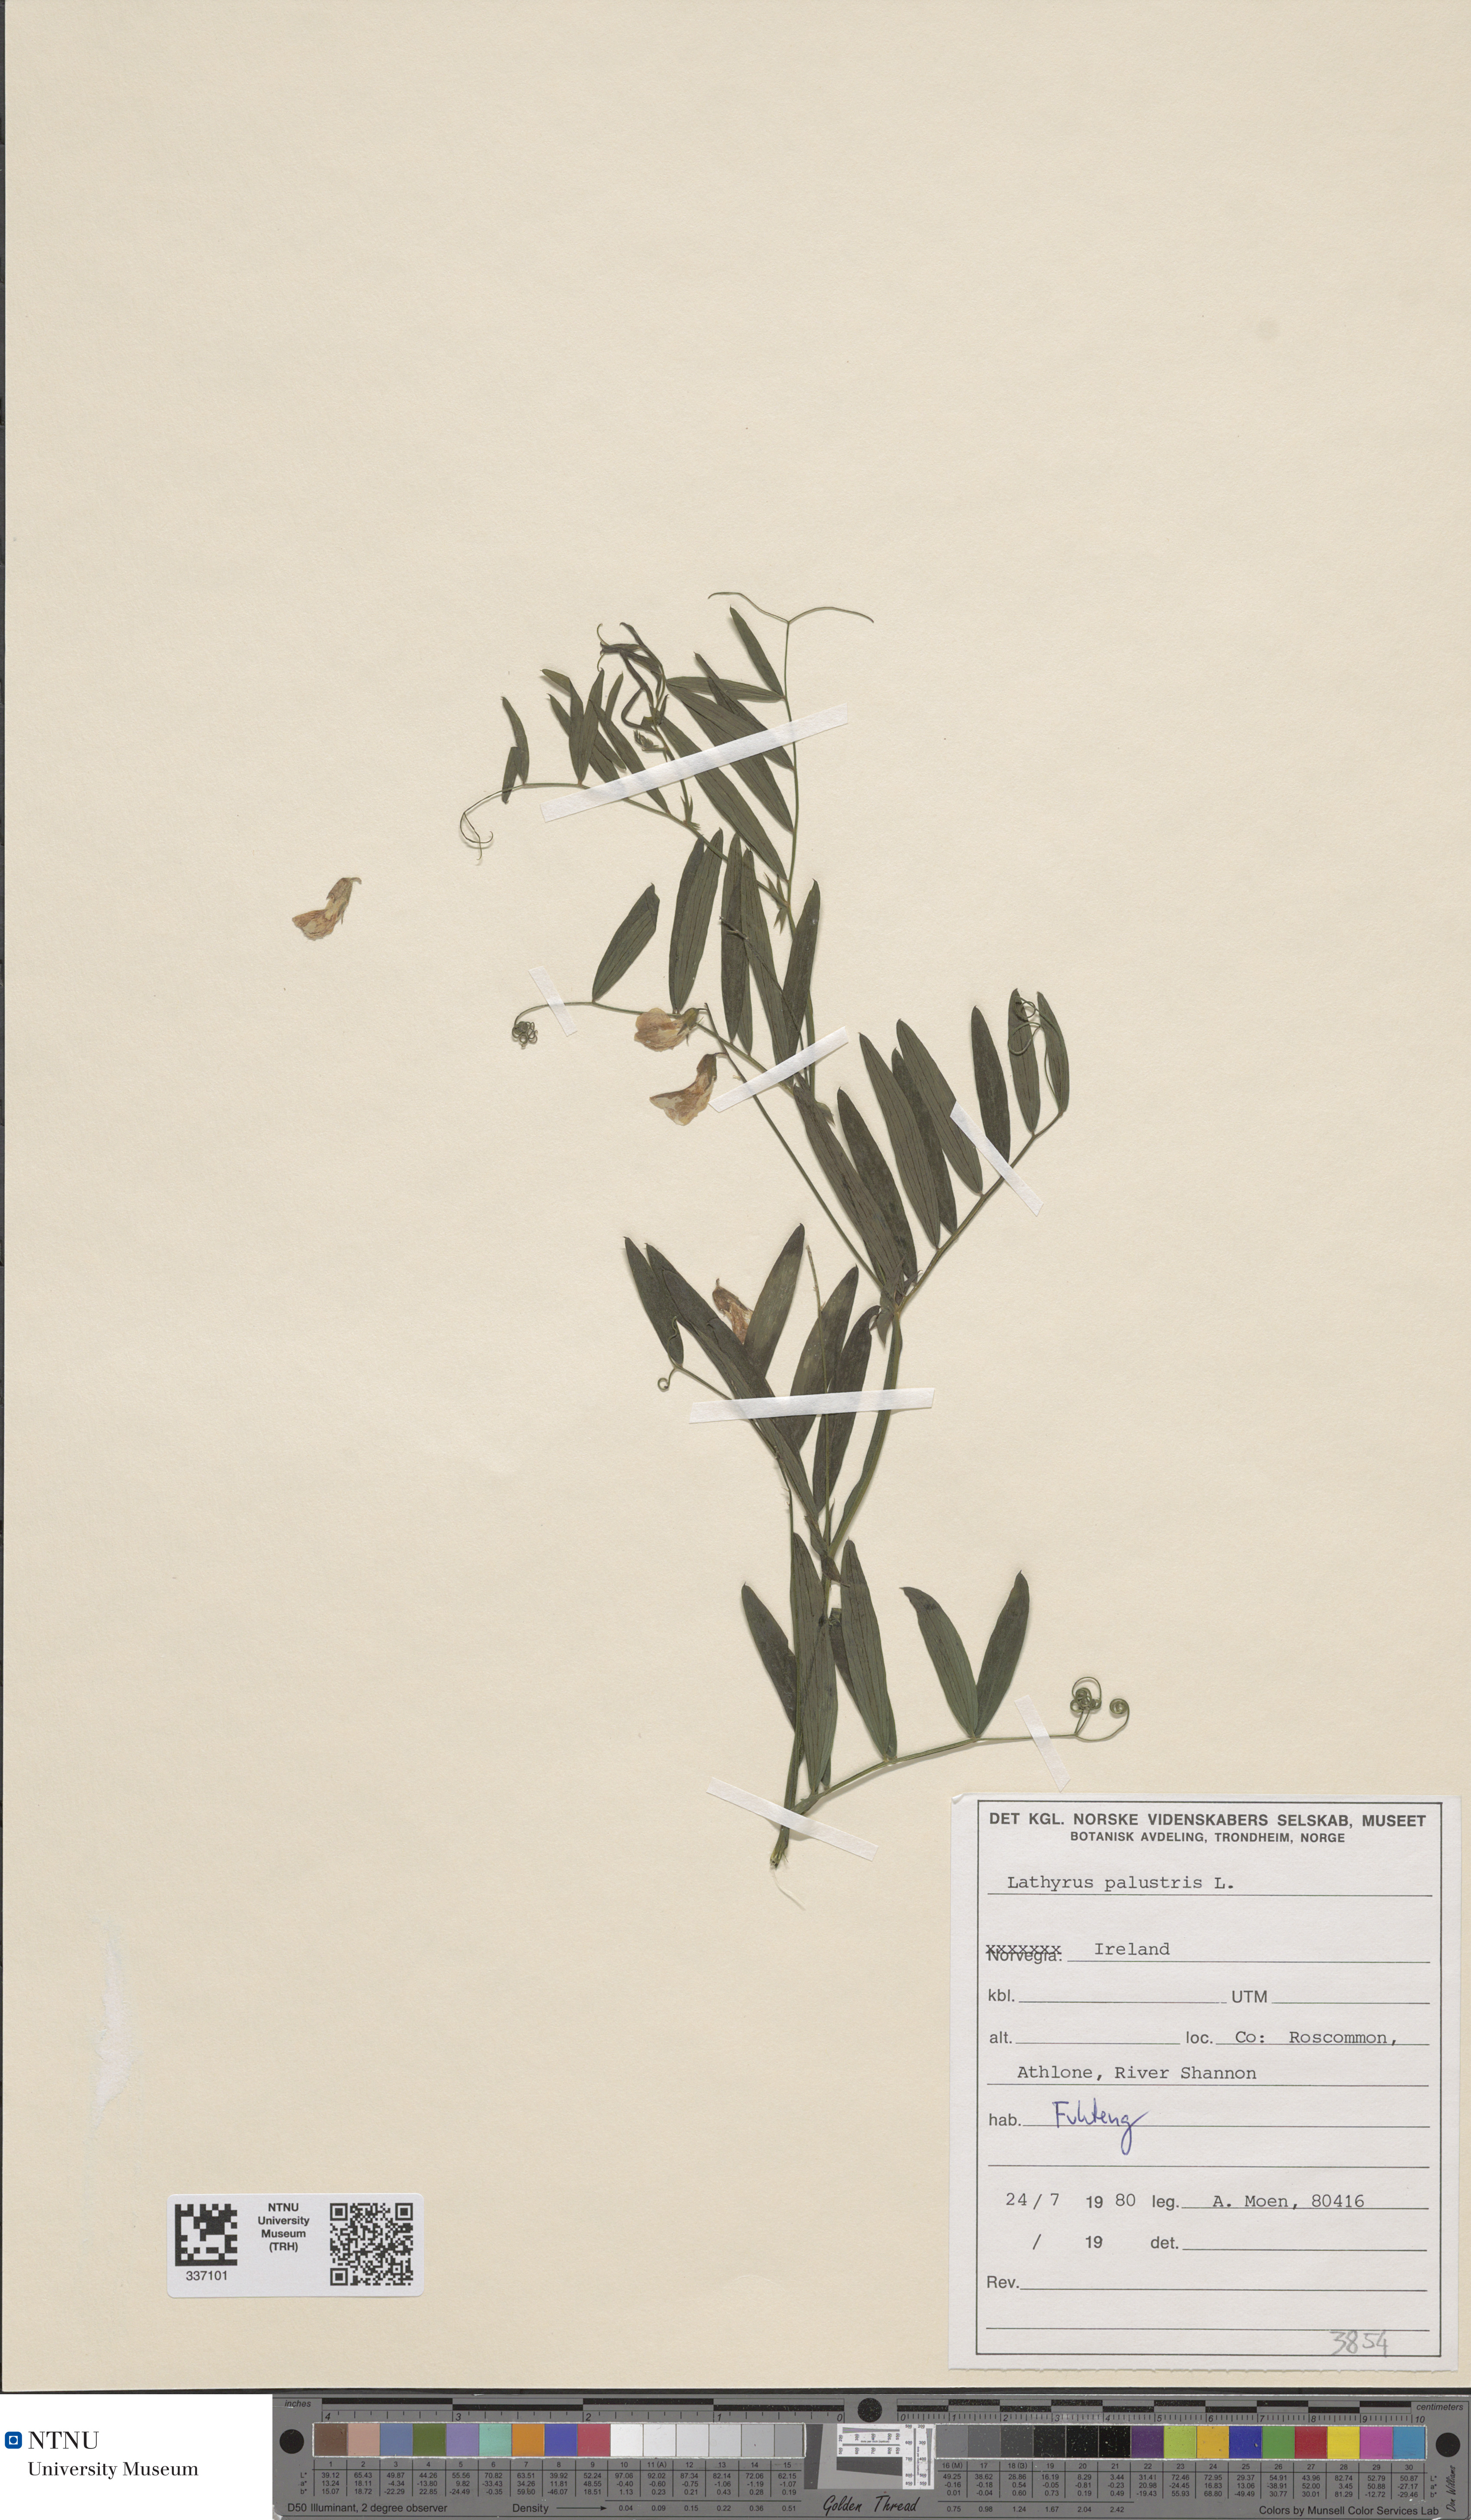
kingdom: Plantae
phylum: Tracheophyta
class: Magnoliopsida
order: Fabales
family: Fabaceae
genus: Lathyrus
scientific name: Lathyrus palustris
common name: Marsh pea
